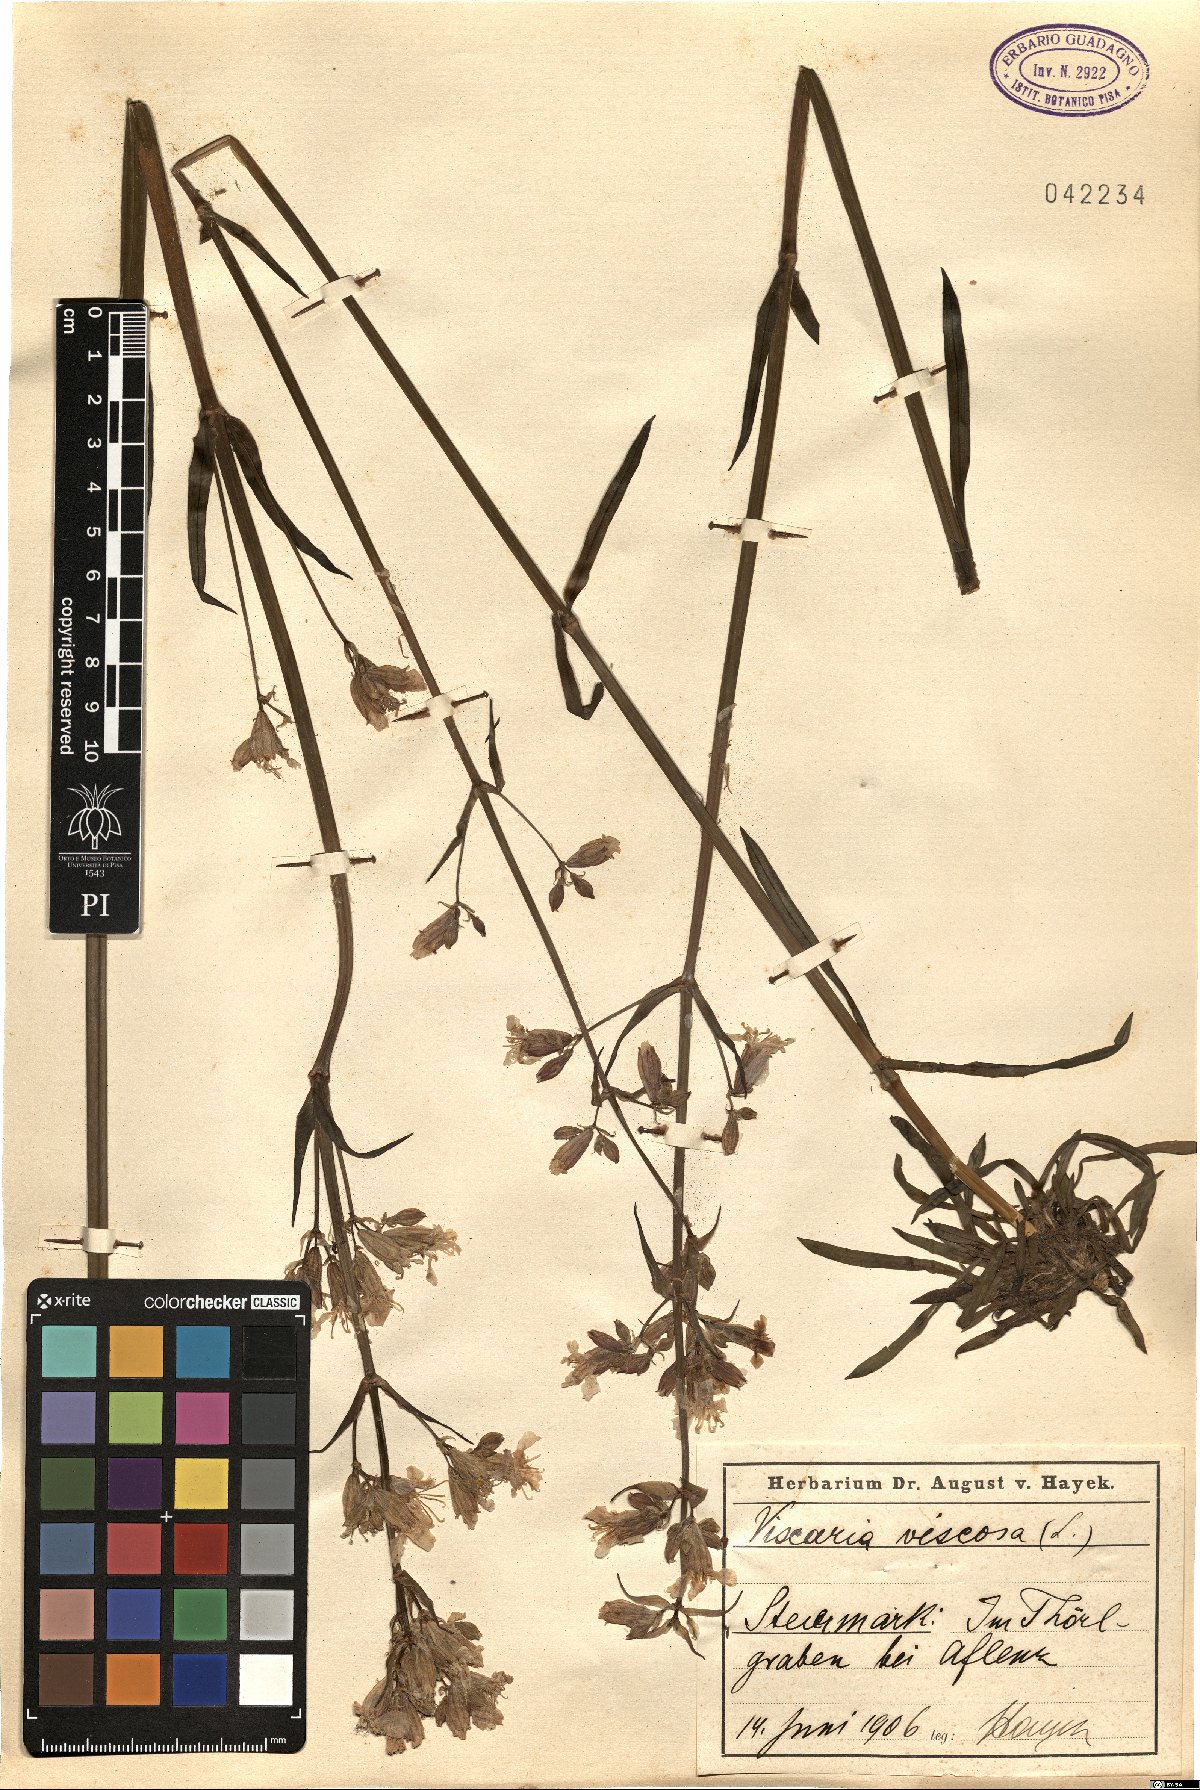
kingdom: Plantae
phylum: Tracheophyta
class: Magnoliopsida
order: Caryophyllales
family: Caryophyllaceae
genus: Silene
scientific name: Silene viscosa
